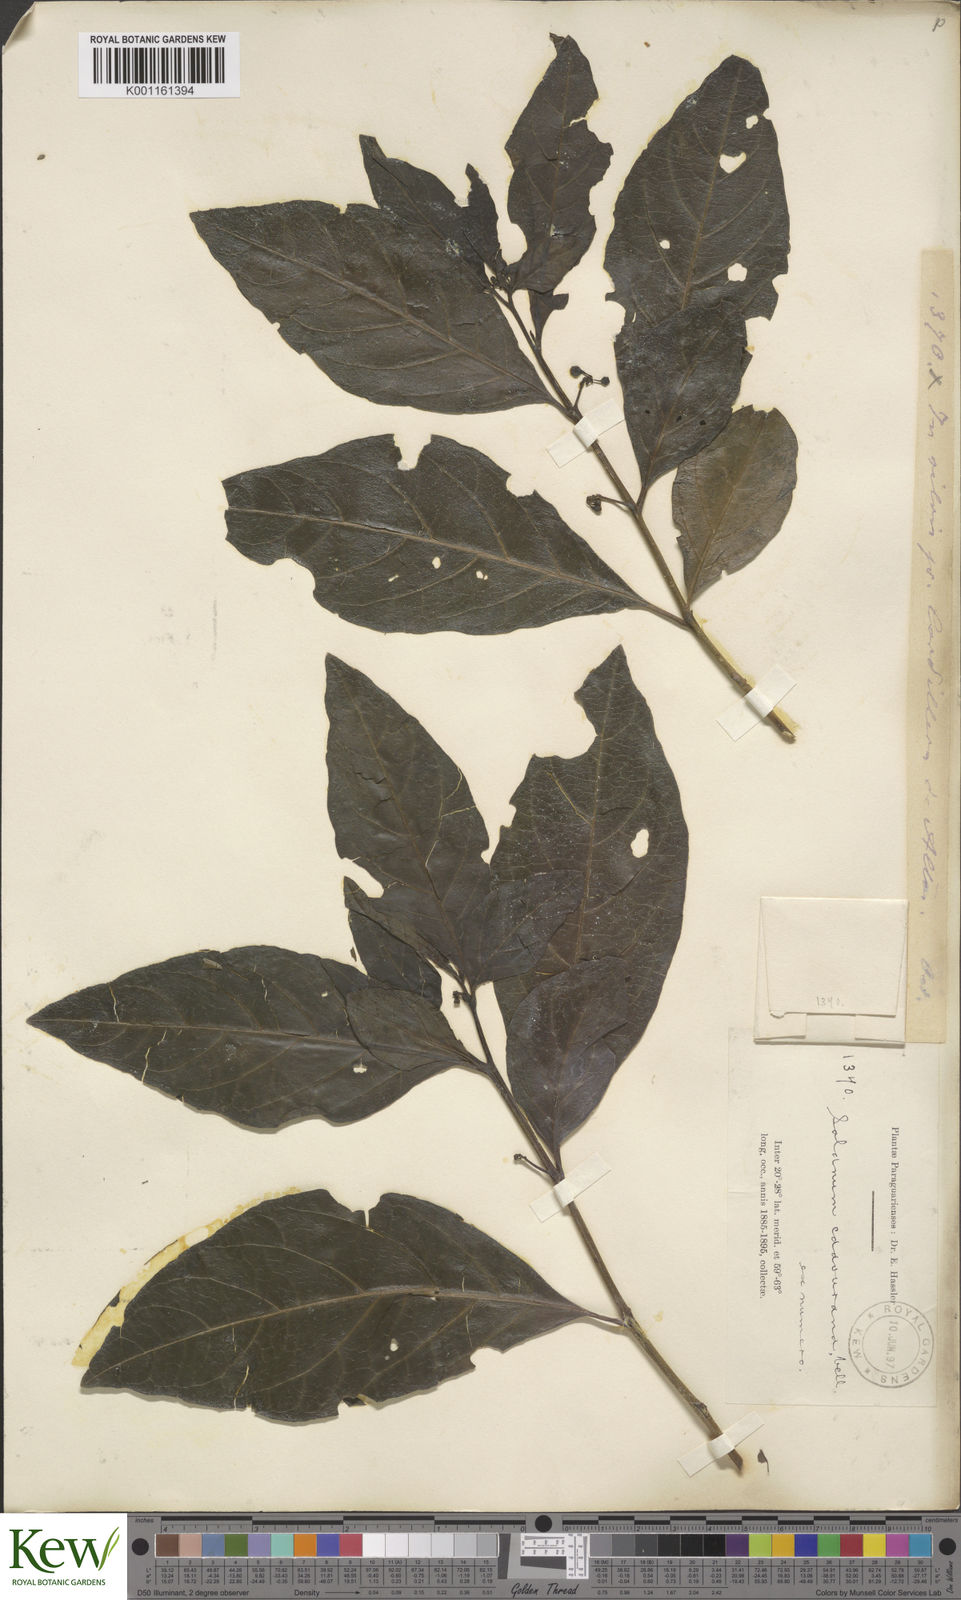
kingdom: Plantae
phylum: Tracheophyta
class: Magnoliopsida
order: Solanales
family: Solanaceae
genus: Solanum
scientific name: Solanum caavurana
